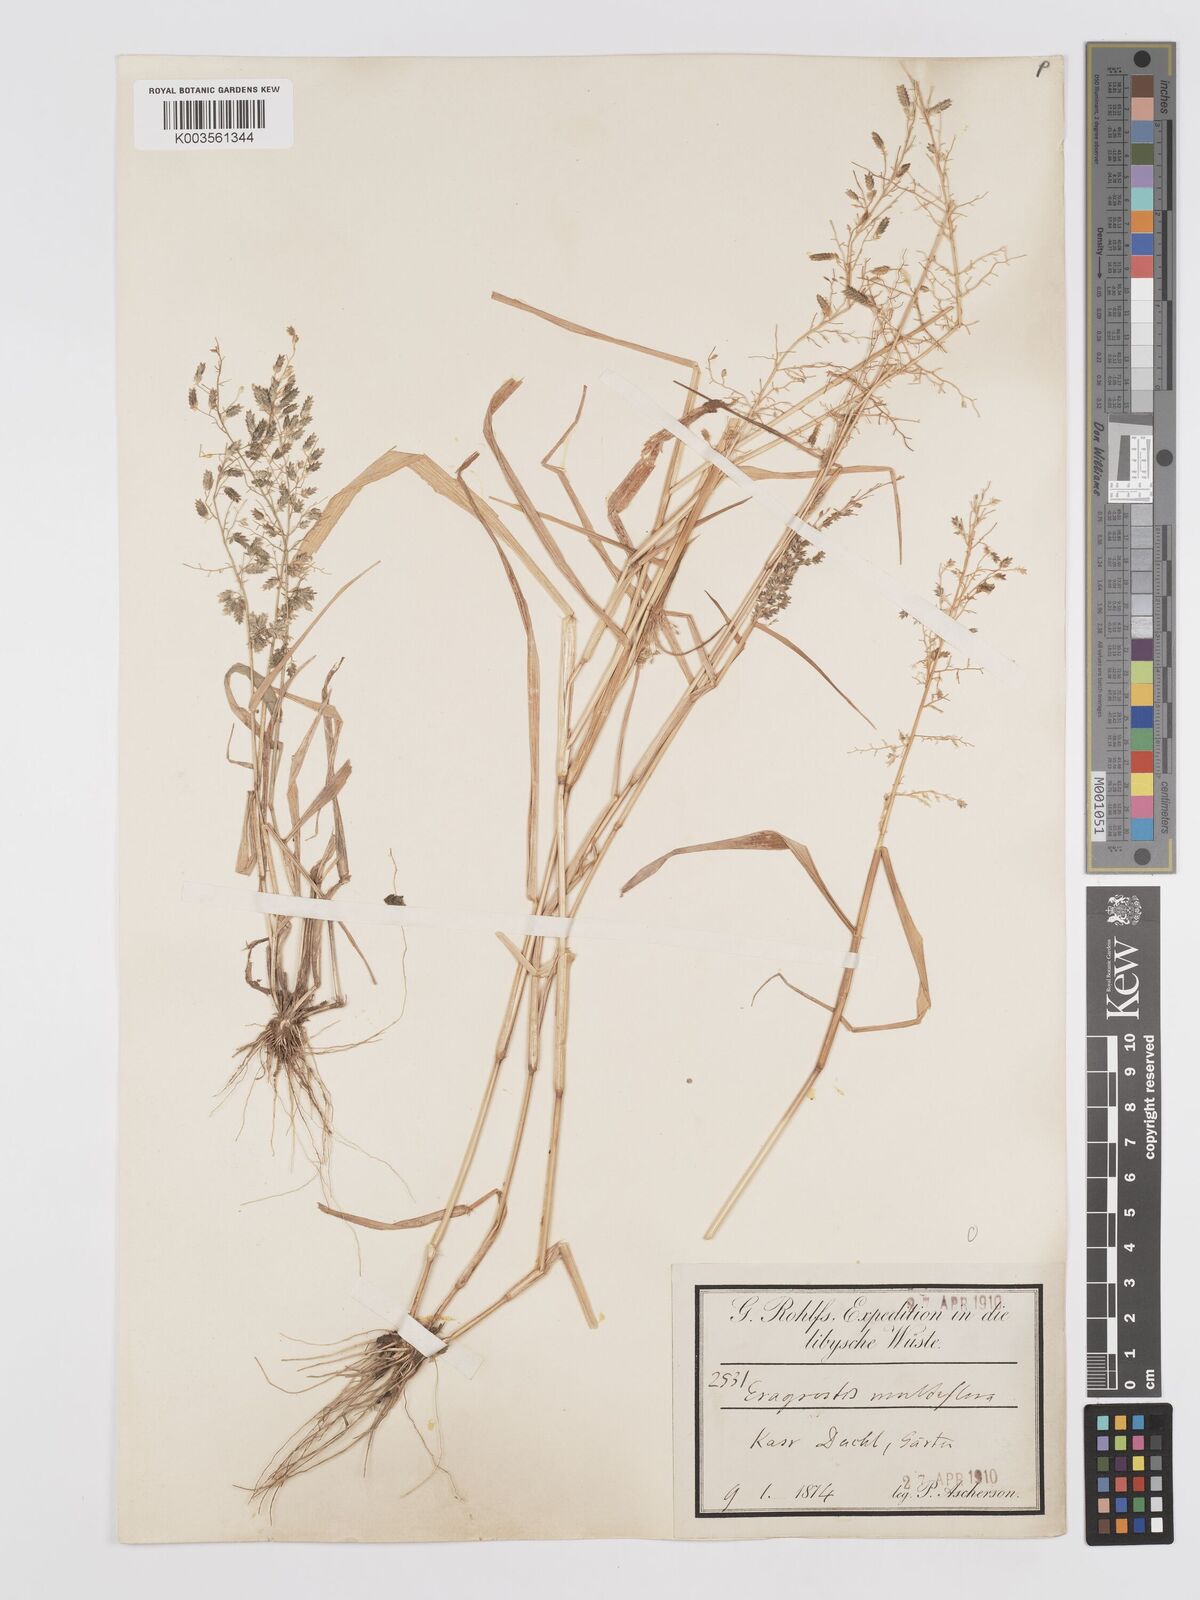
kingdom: Plantae
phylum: Tracheophyta
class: Liliopsida
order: Poales
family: Poaceae
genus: Eragrostis
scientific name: Eragrostis cilianensis
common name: Stinkgrass
